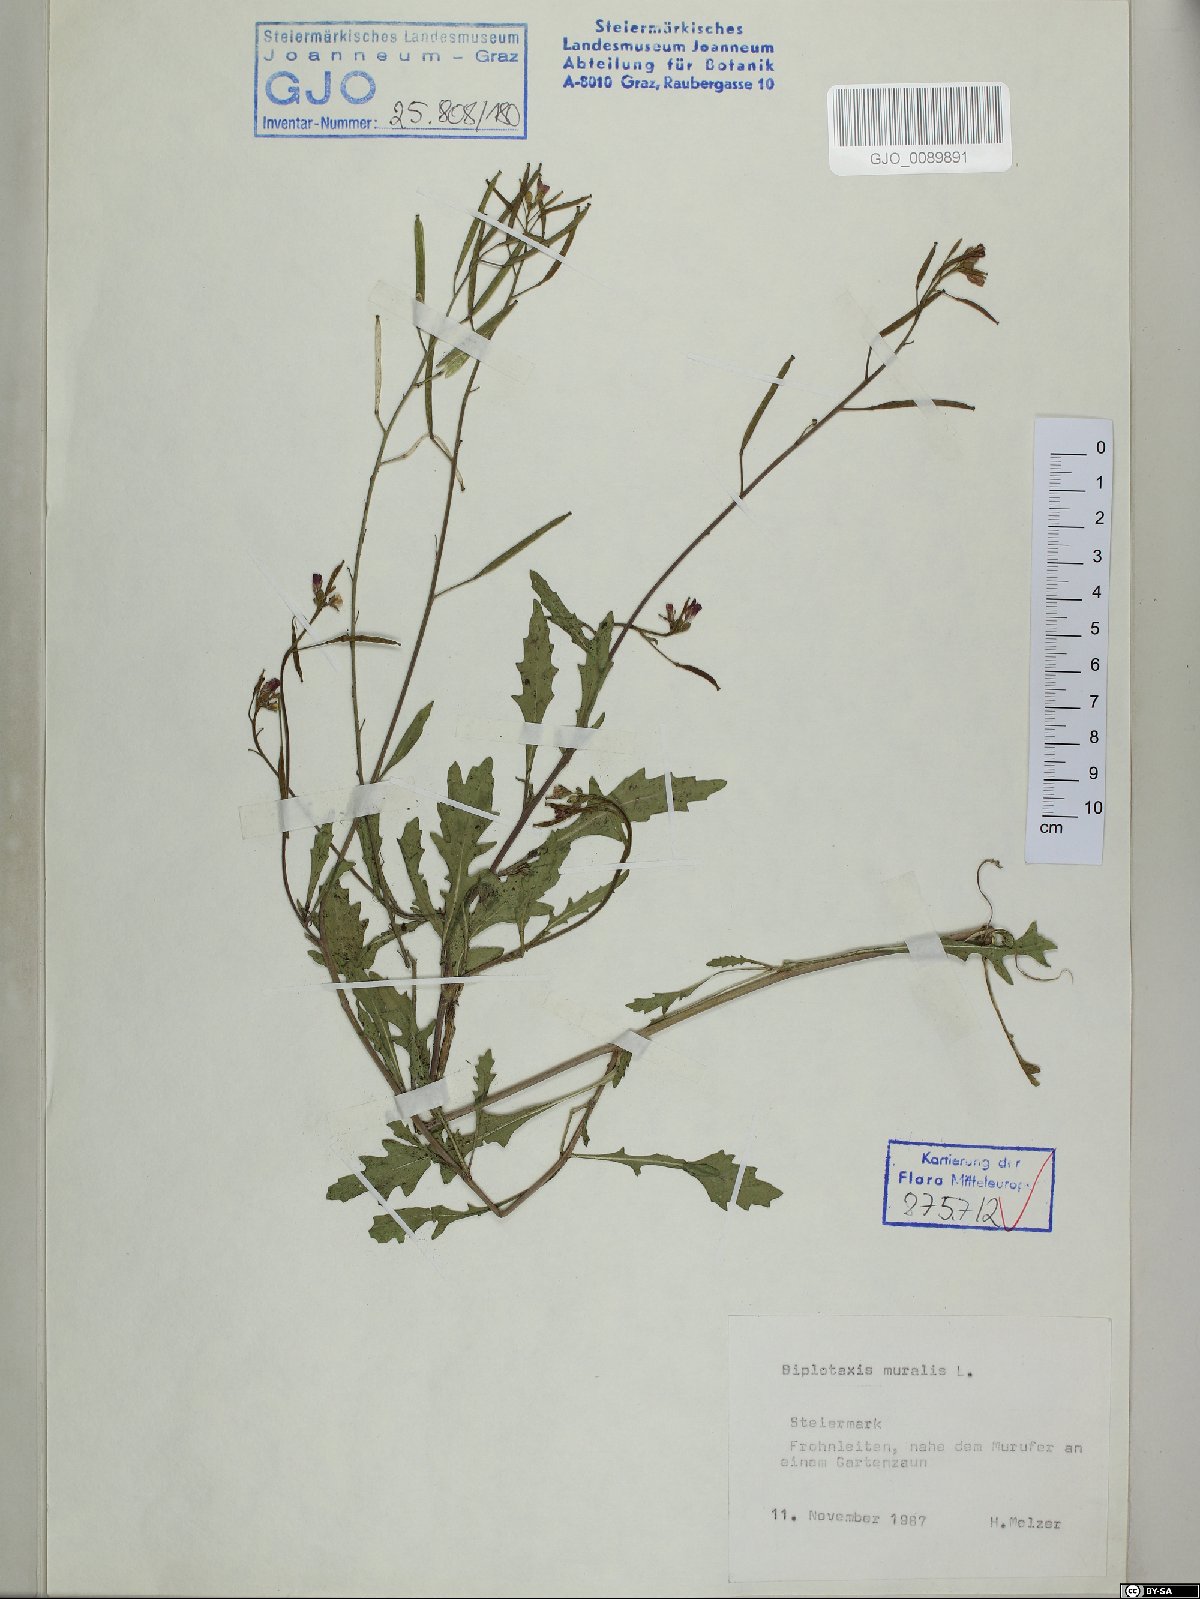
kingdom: Plantae
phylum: Tracheophyta
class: Magnoliopsida
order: Brassicales
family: Brassicaceae
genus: Diplotaxis
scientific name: Diplotaxis muralis
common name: Annual wall-rocket
